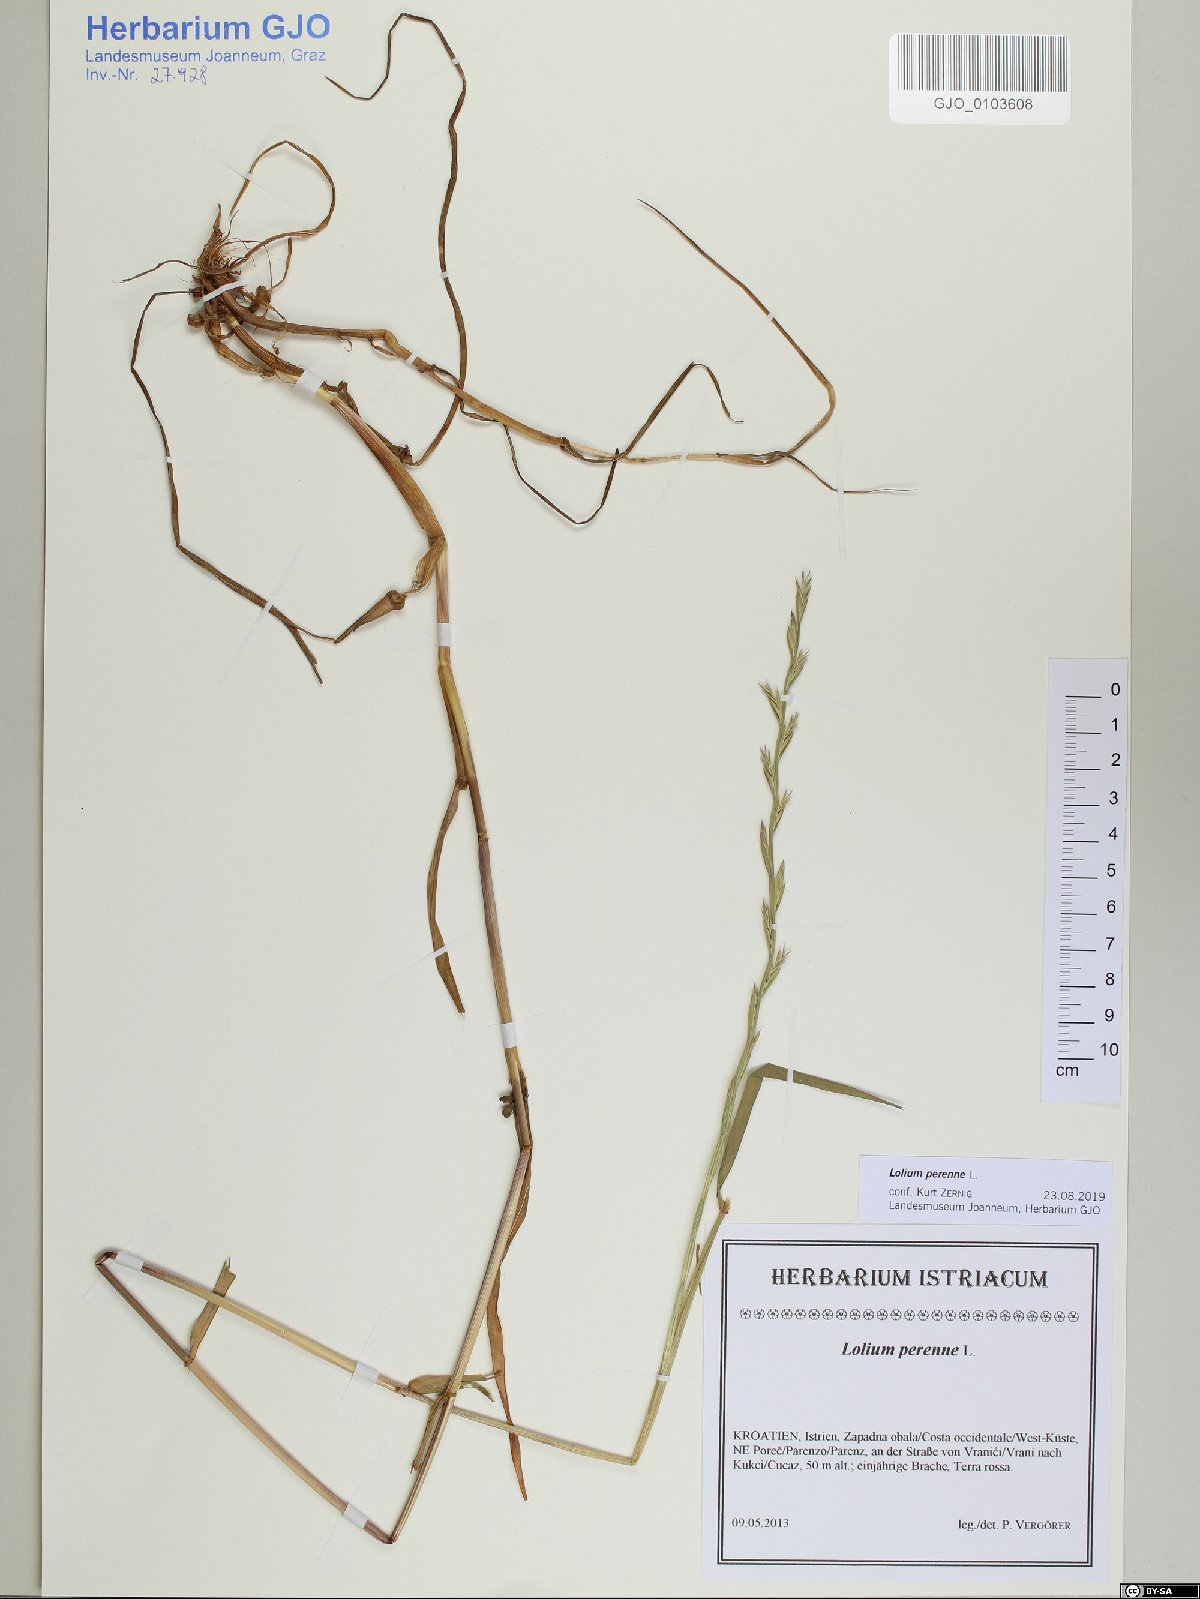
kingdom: Plantae
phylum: Tracheophyta
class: Liliopsida
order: Poales
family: Poaceae
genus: Lolium
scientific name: Lolium perenne
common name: Perennial ryegrass
